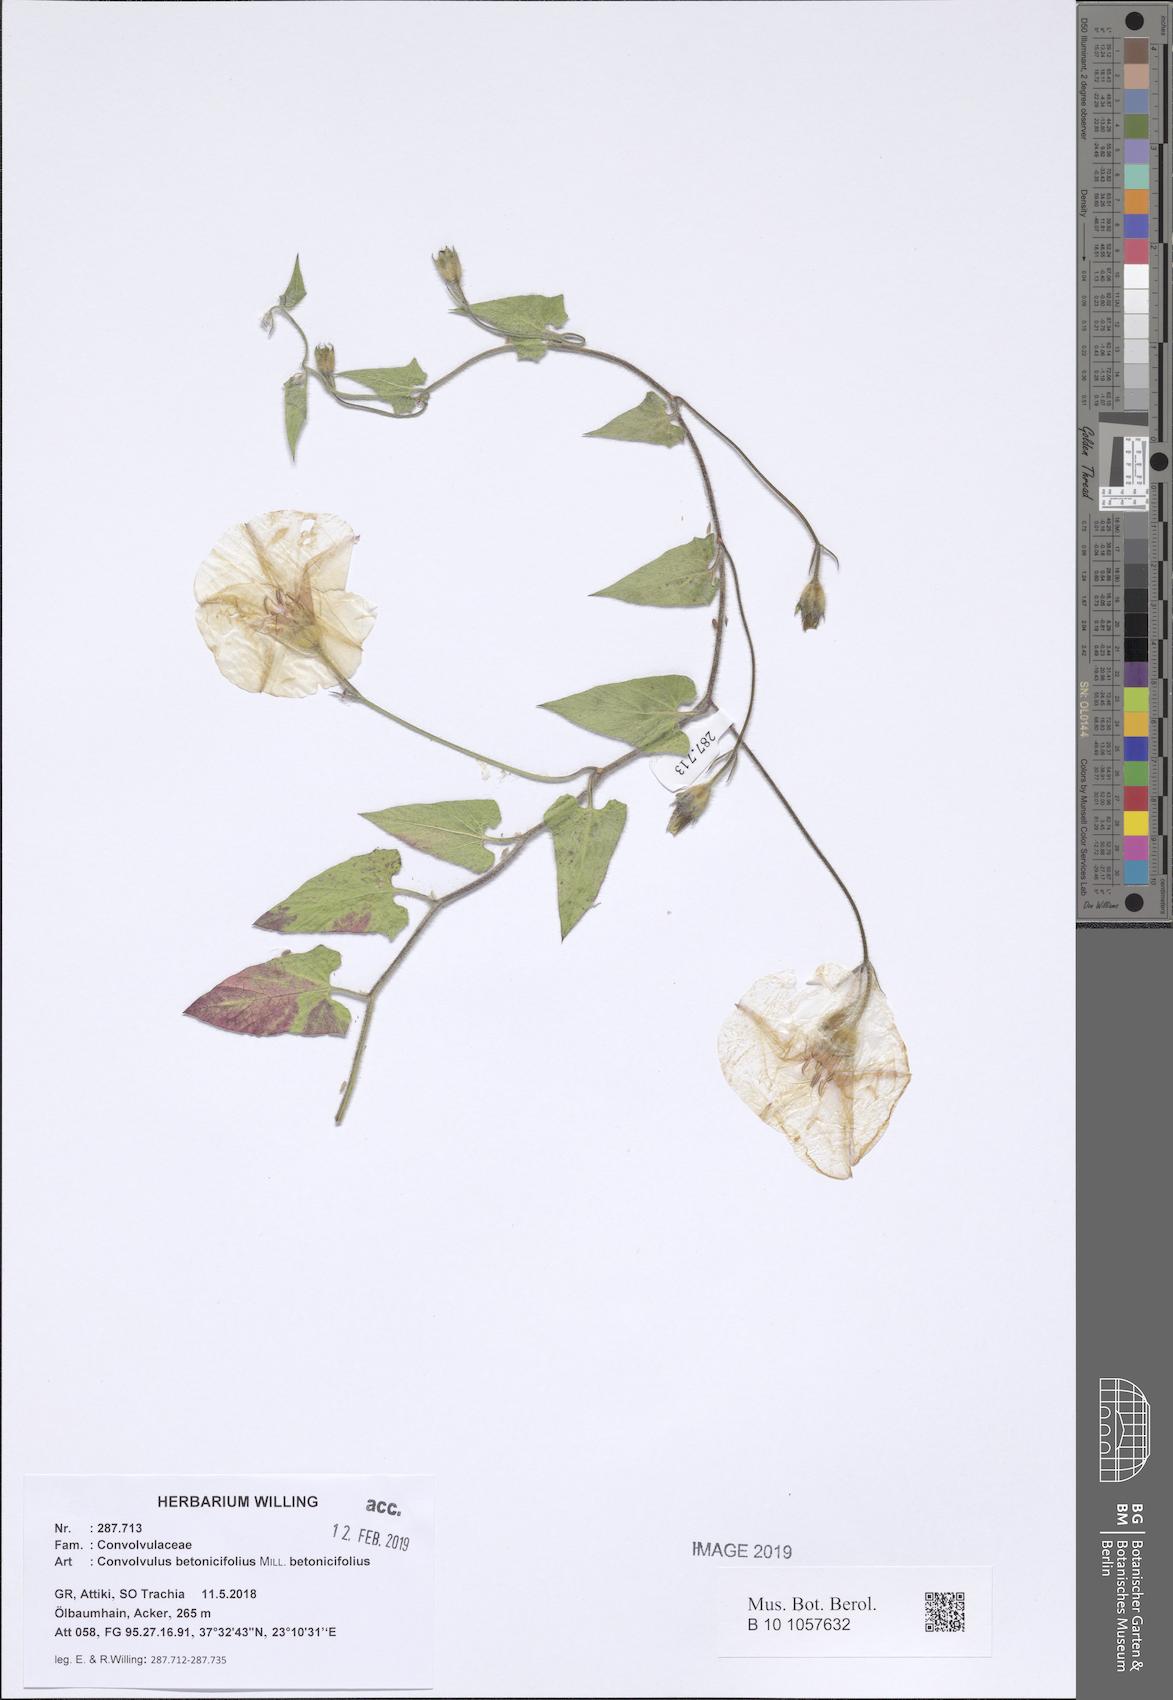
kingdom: Plantae
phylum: Tracheophyta
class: Magnoliopsida
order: Solanales
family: Convolvulaceae
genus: Convolvulus
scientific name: Convolvulus betonicifolius
